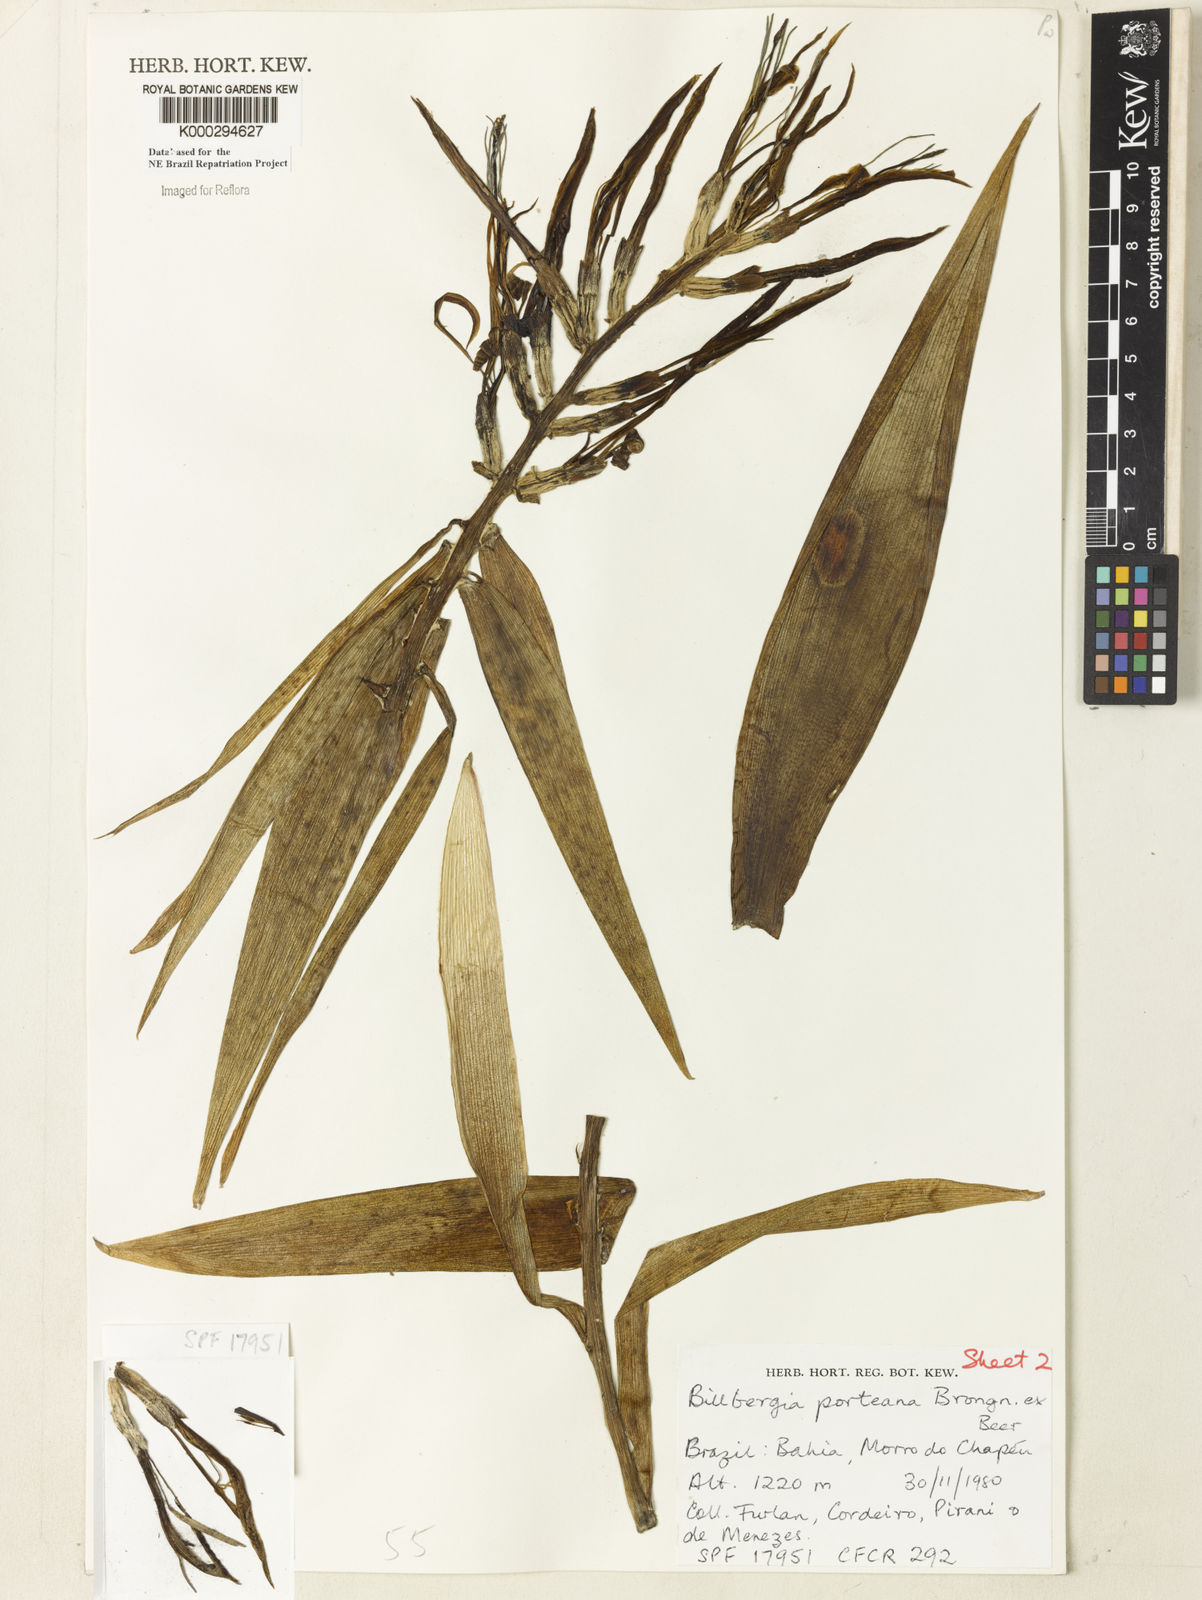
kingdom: Plantae
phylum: Tracheophyta
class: Liliopsida
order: Poales
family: Bromeliaceae
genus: Billbergia
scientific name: Billbergia porteana
